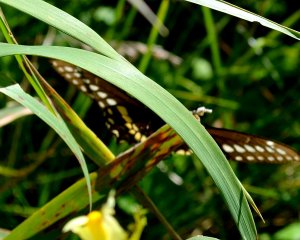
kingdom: Animalia
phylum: Arthropoda
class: Insecta
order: Lepidoptera
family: Papilionidae
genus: Papilio
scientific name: Papilio polyxenes
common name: Black Swallowtail
